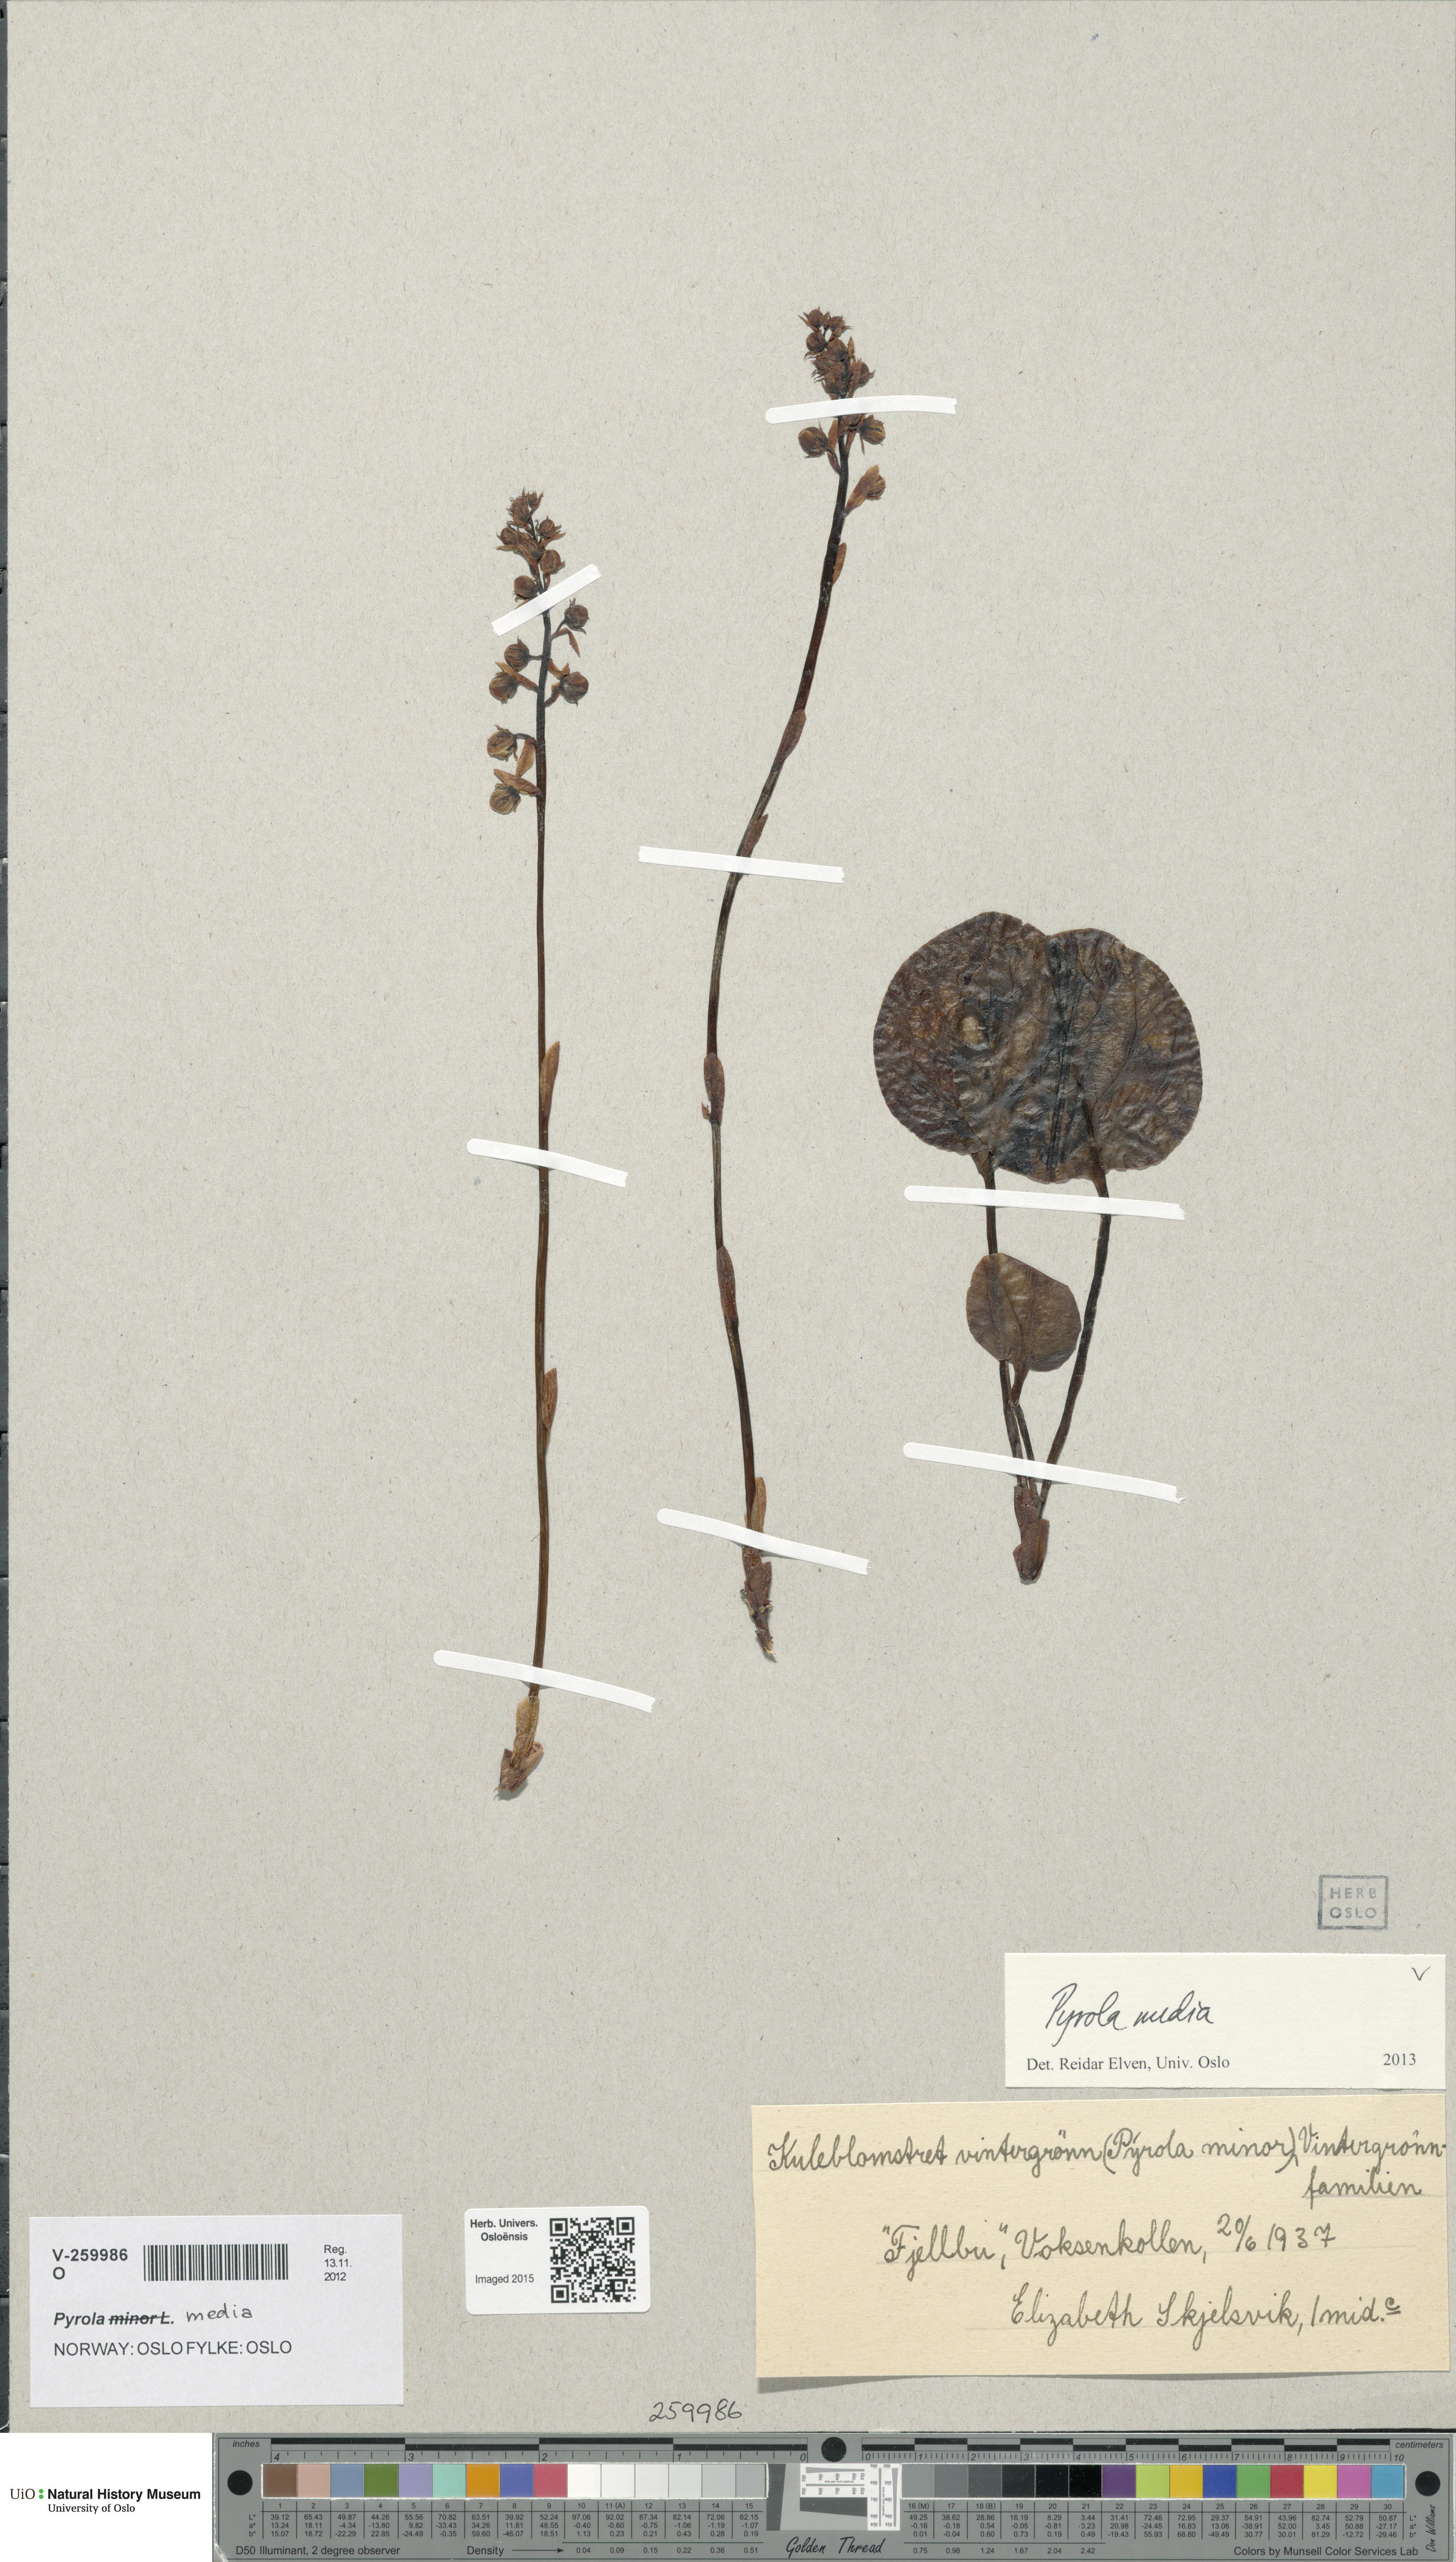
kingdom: Plantae
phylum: Tracheophyta
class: Magnoliopsida
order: Ericales
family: Ericaceae
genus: Pyrola
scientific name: Pyrola media
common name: Intermediate wintergreen
